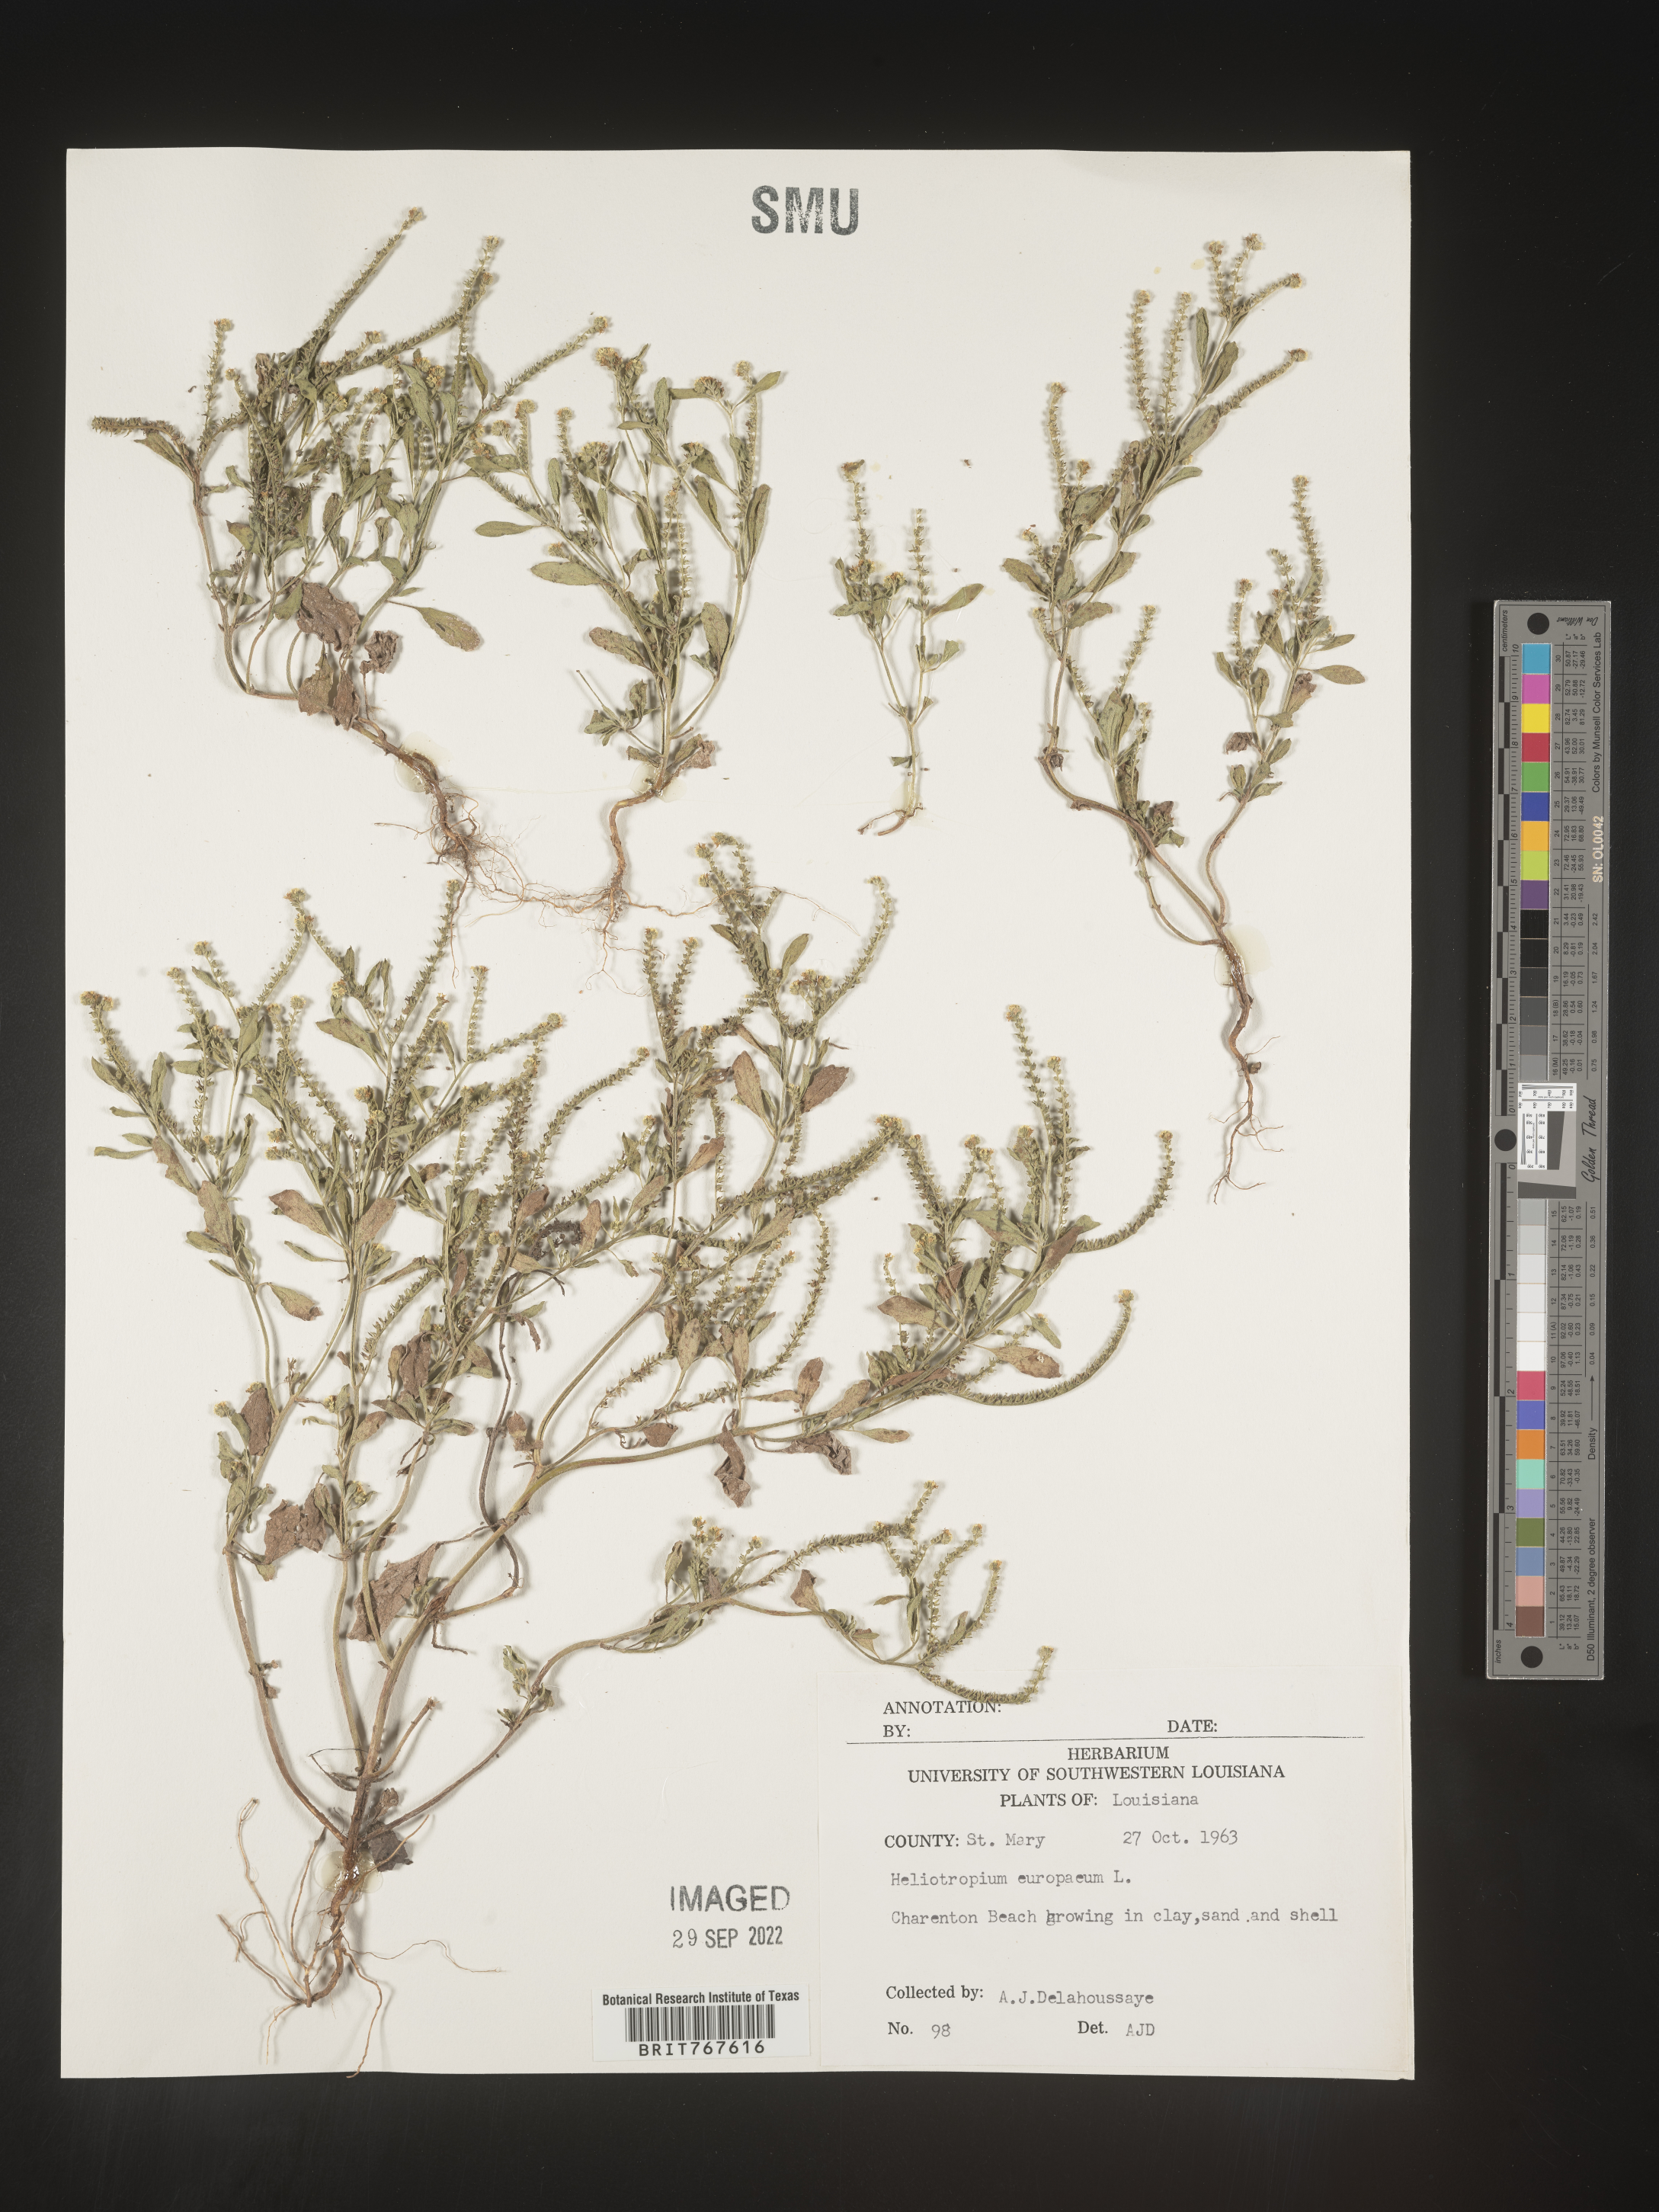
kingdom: Plantae
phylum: Tracheophyta
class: Magnoliopsida
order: Boraginales
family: Heliotropiaceae
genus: Heliotropium
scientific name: Heliotropium
